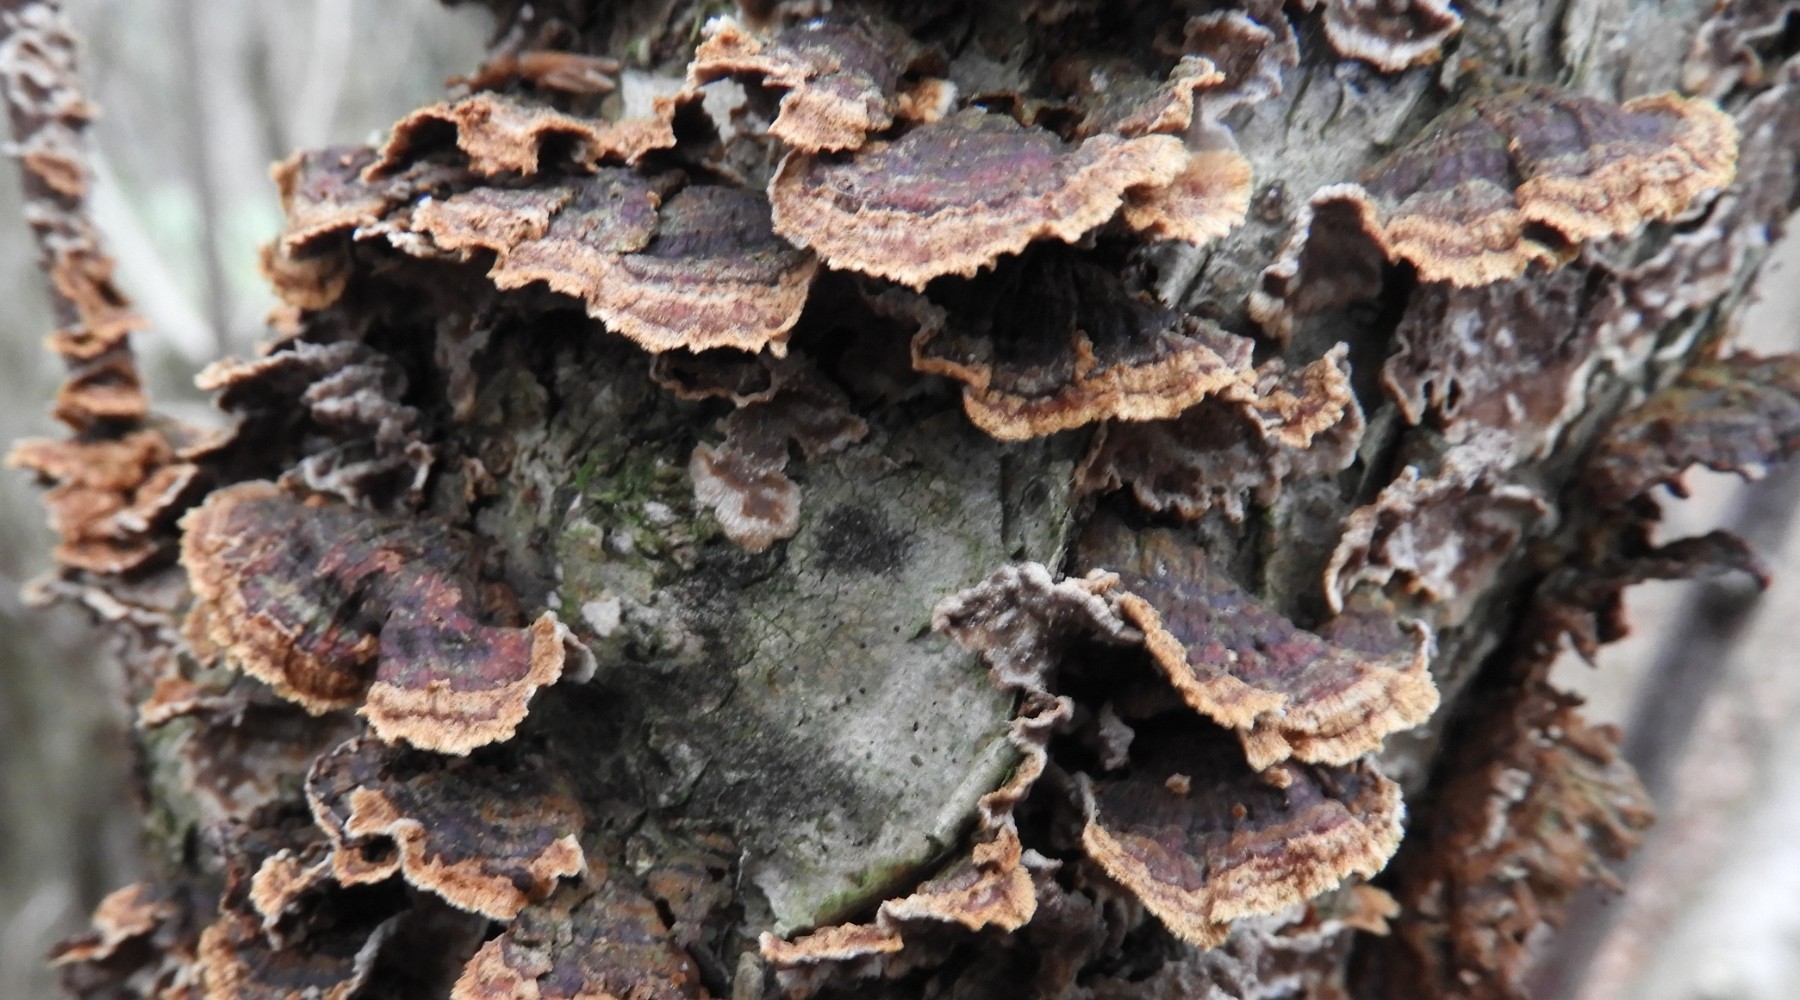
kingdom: Fungi
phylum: Basidiomycota
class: Agaricomycetes
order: Hymenochaetales
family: Hymenochaetaceae
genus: Hydnoporia
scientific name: Hydnoporia tabacina
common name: tobaksbrun ruslædersvamp
